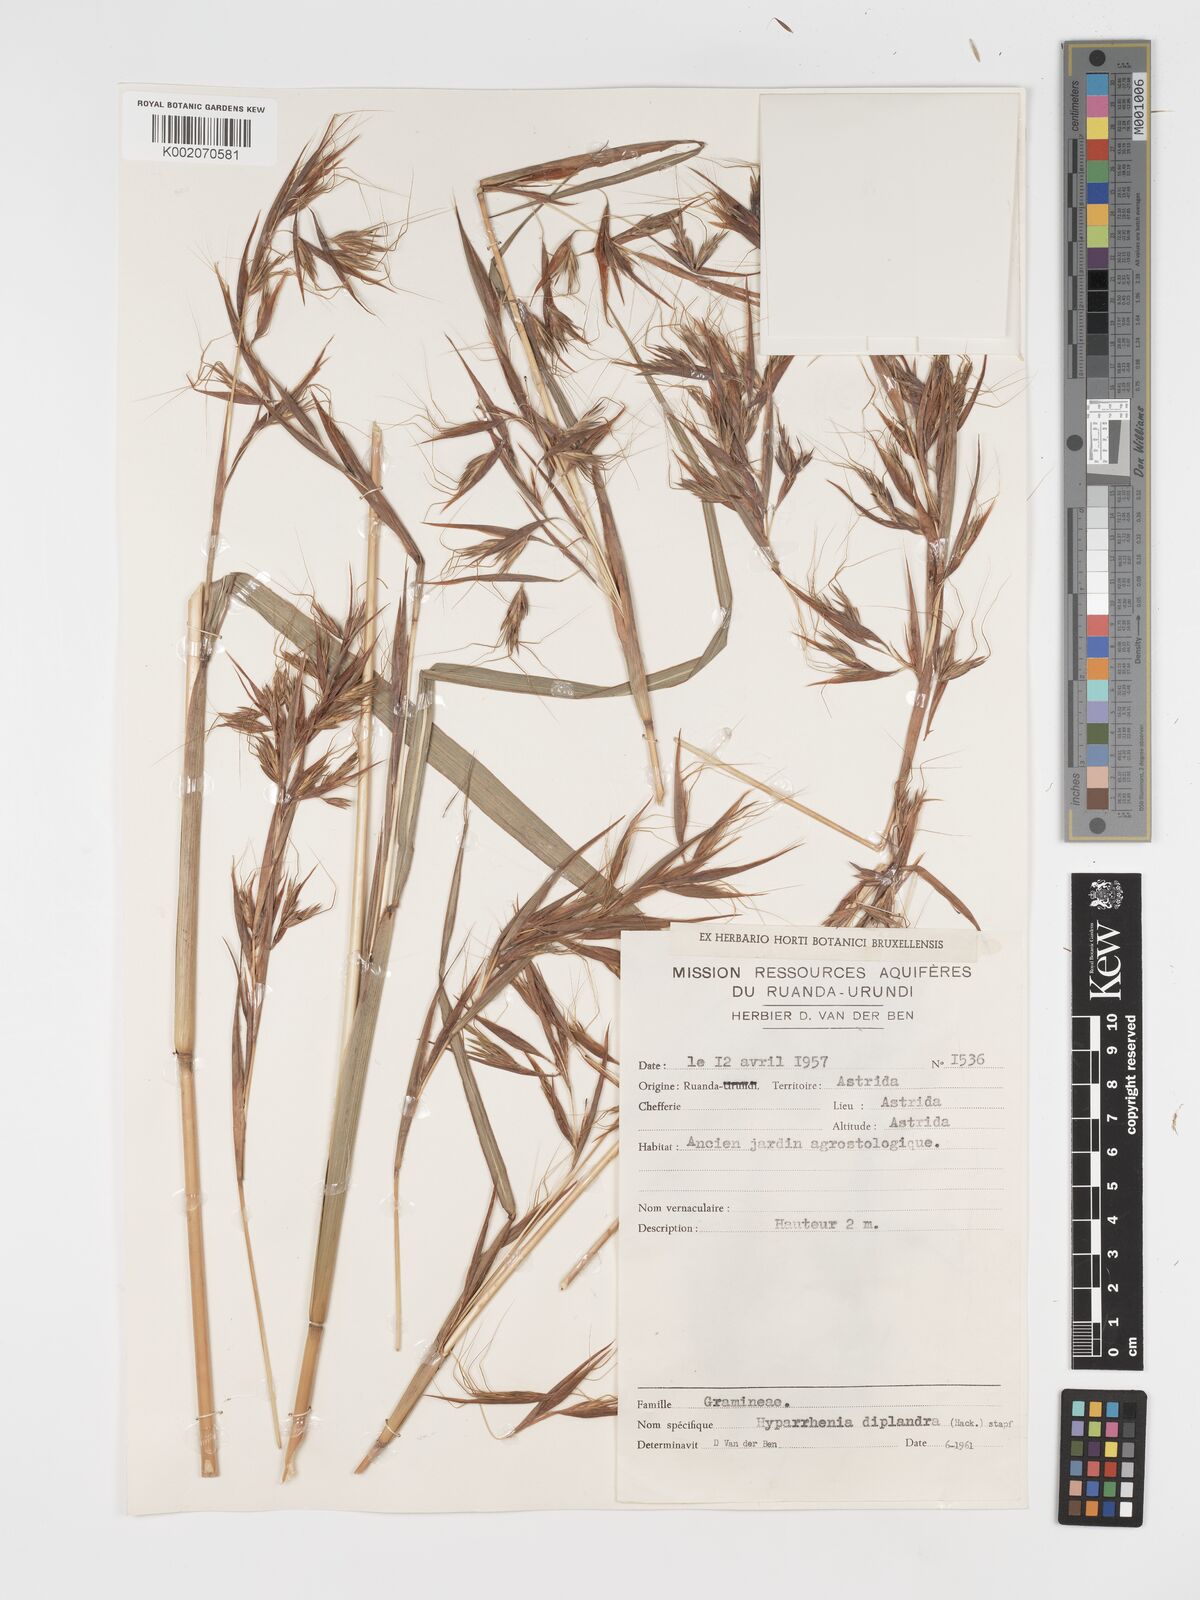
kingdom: Plantae
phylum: Tracheophyta
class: Liliopsida
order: Poales
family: Poaceae
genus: Hyparrhenia
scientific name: Hyparrhenia diplandra
